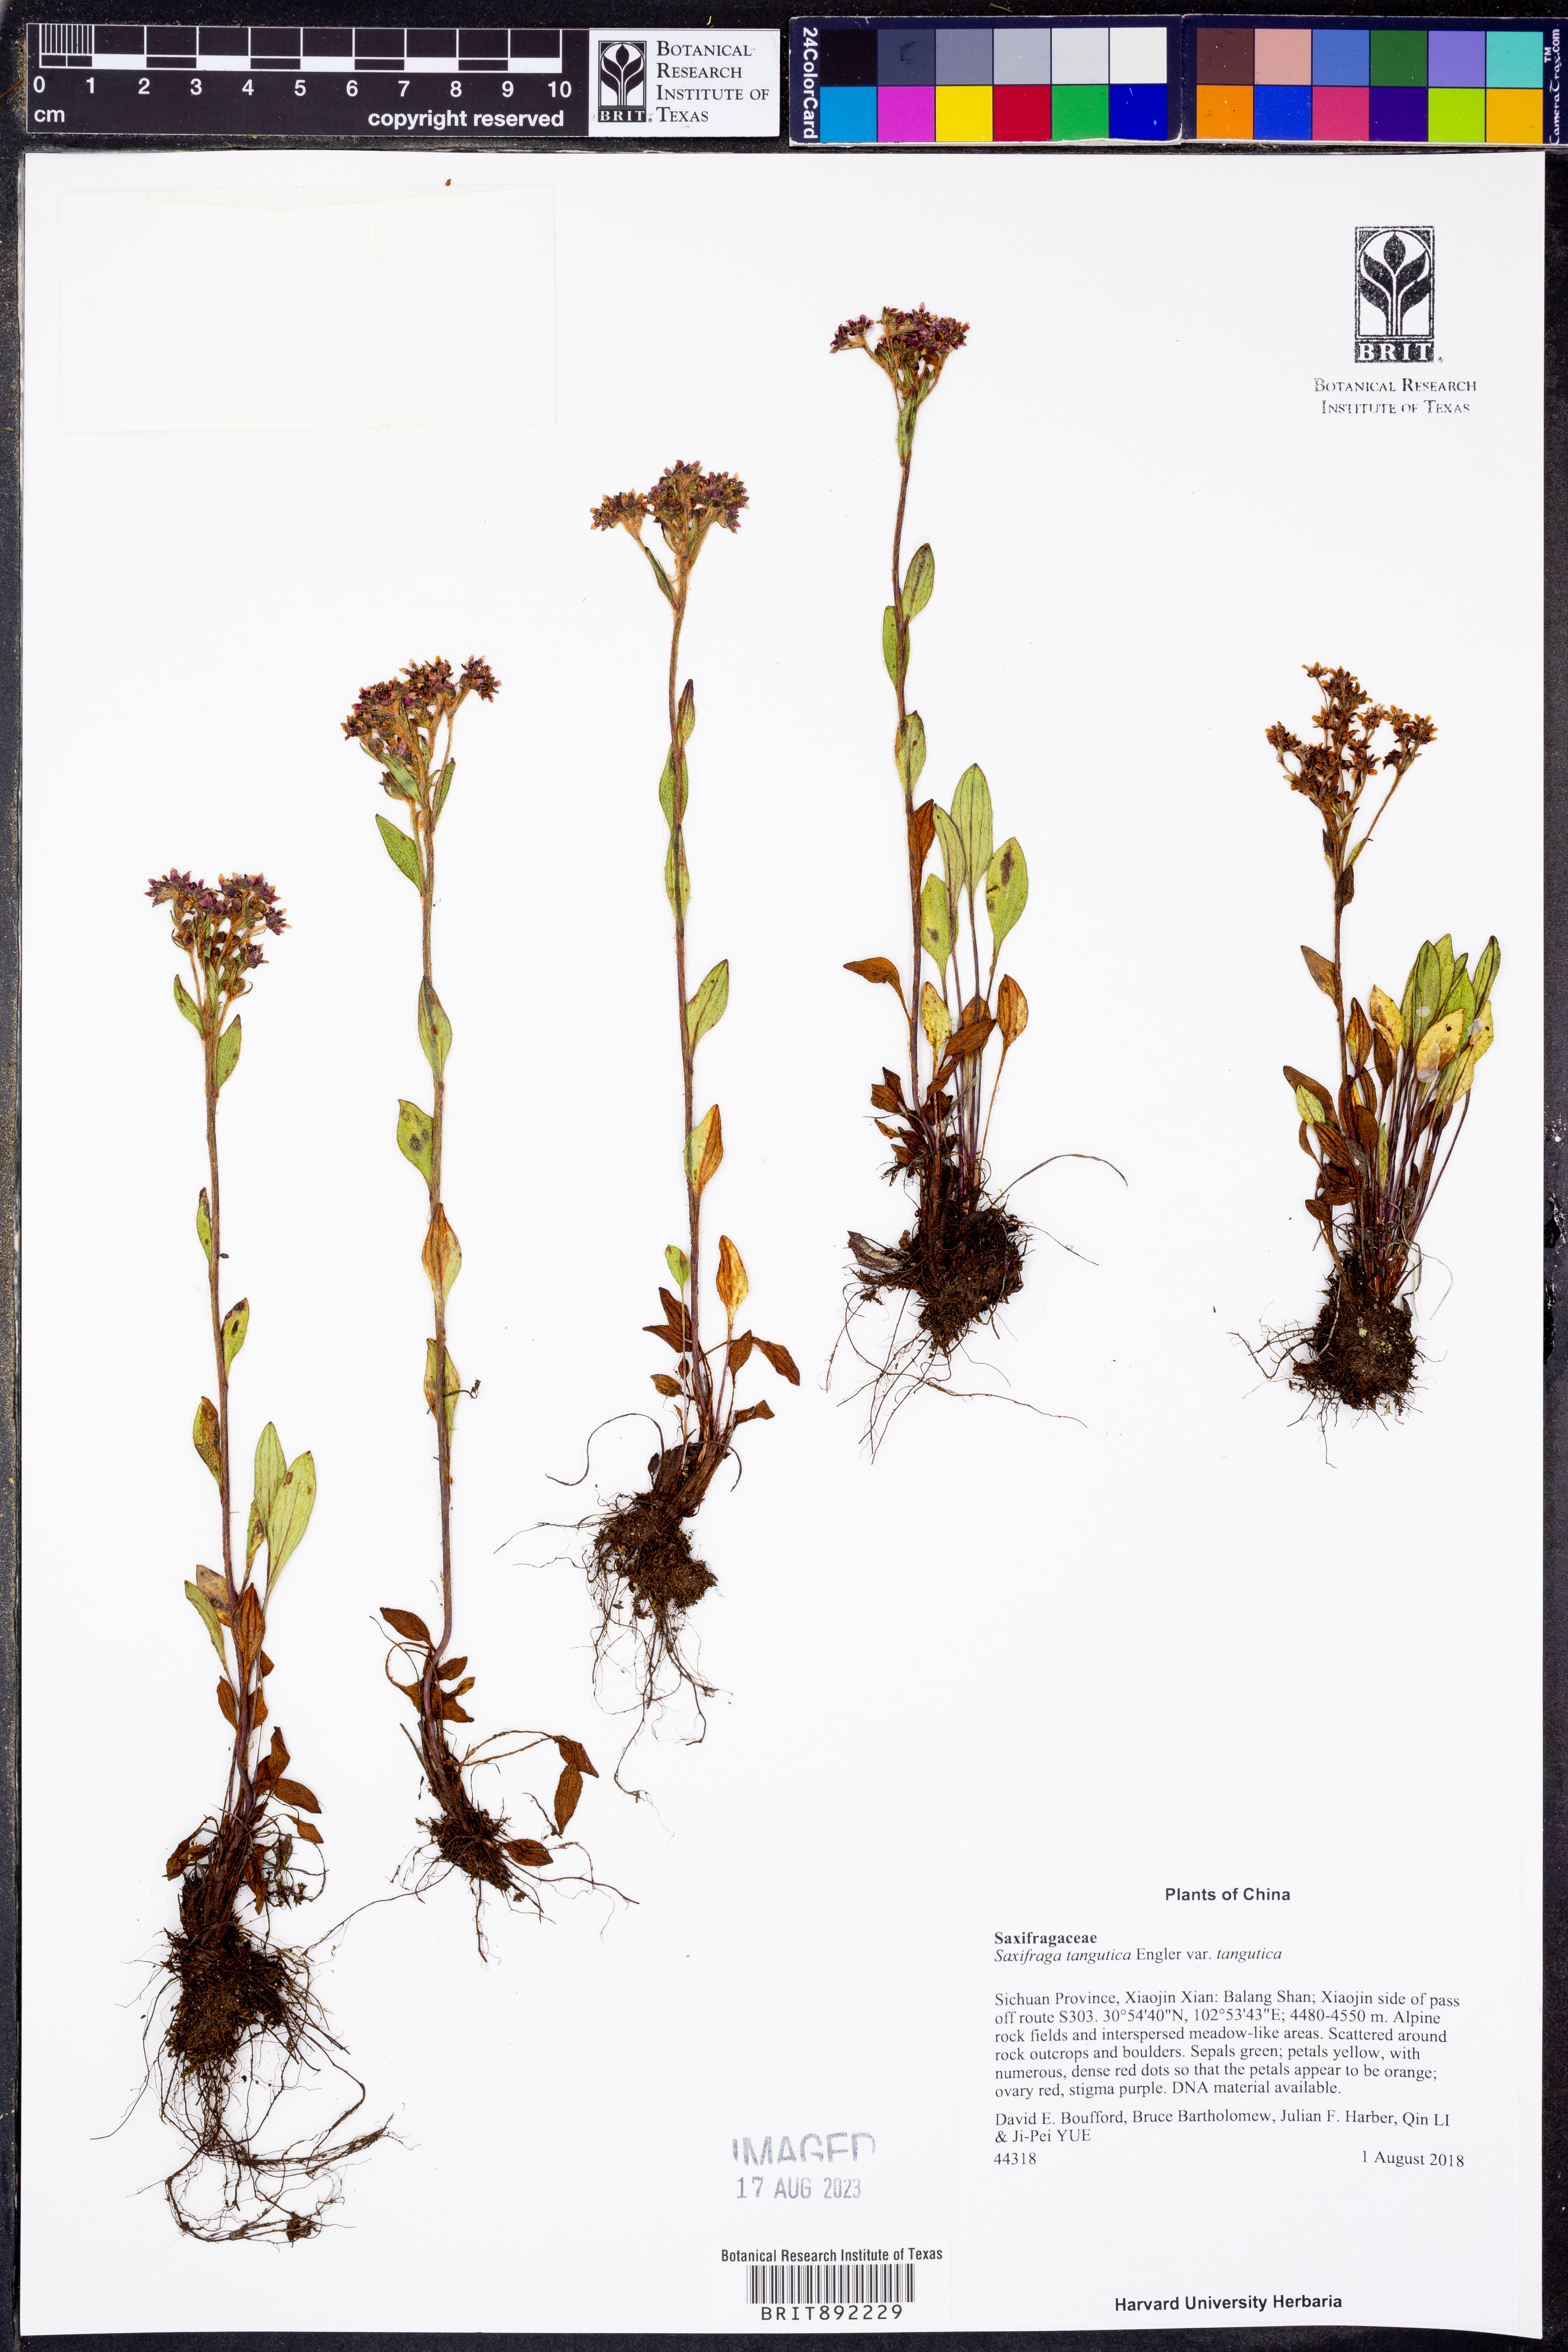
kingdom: Plantae
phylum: Tracheophyta
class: Magnoliopsida
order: Saxifragales
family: Saxifragaceae
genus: Saxifraga
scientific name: Saxifraga tangutica
